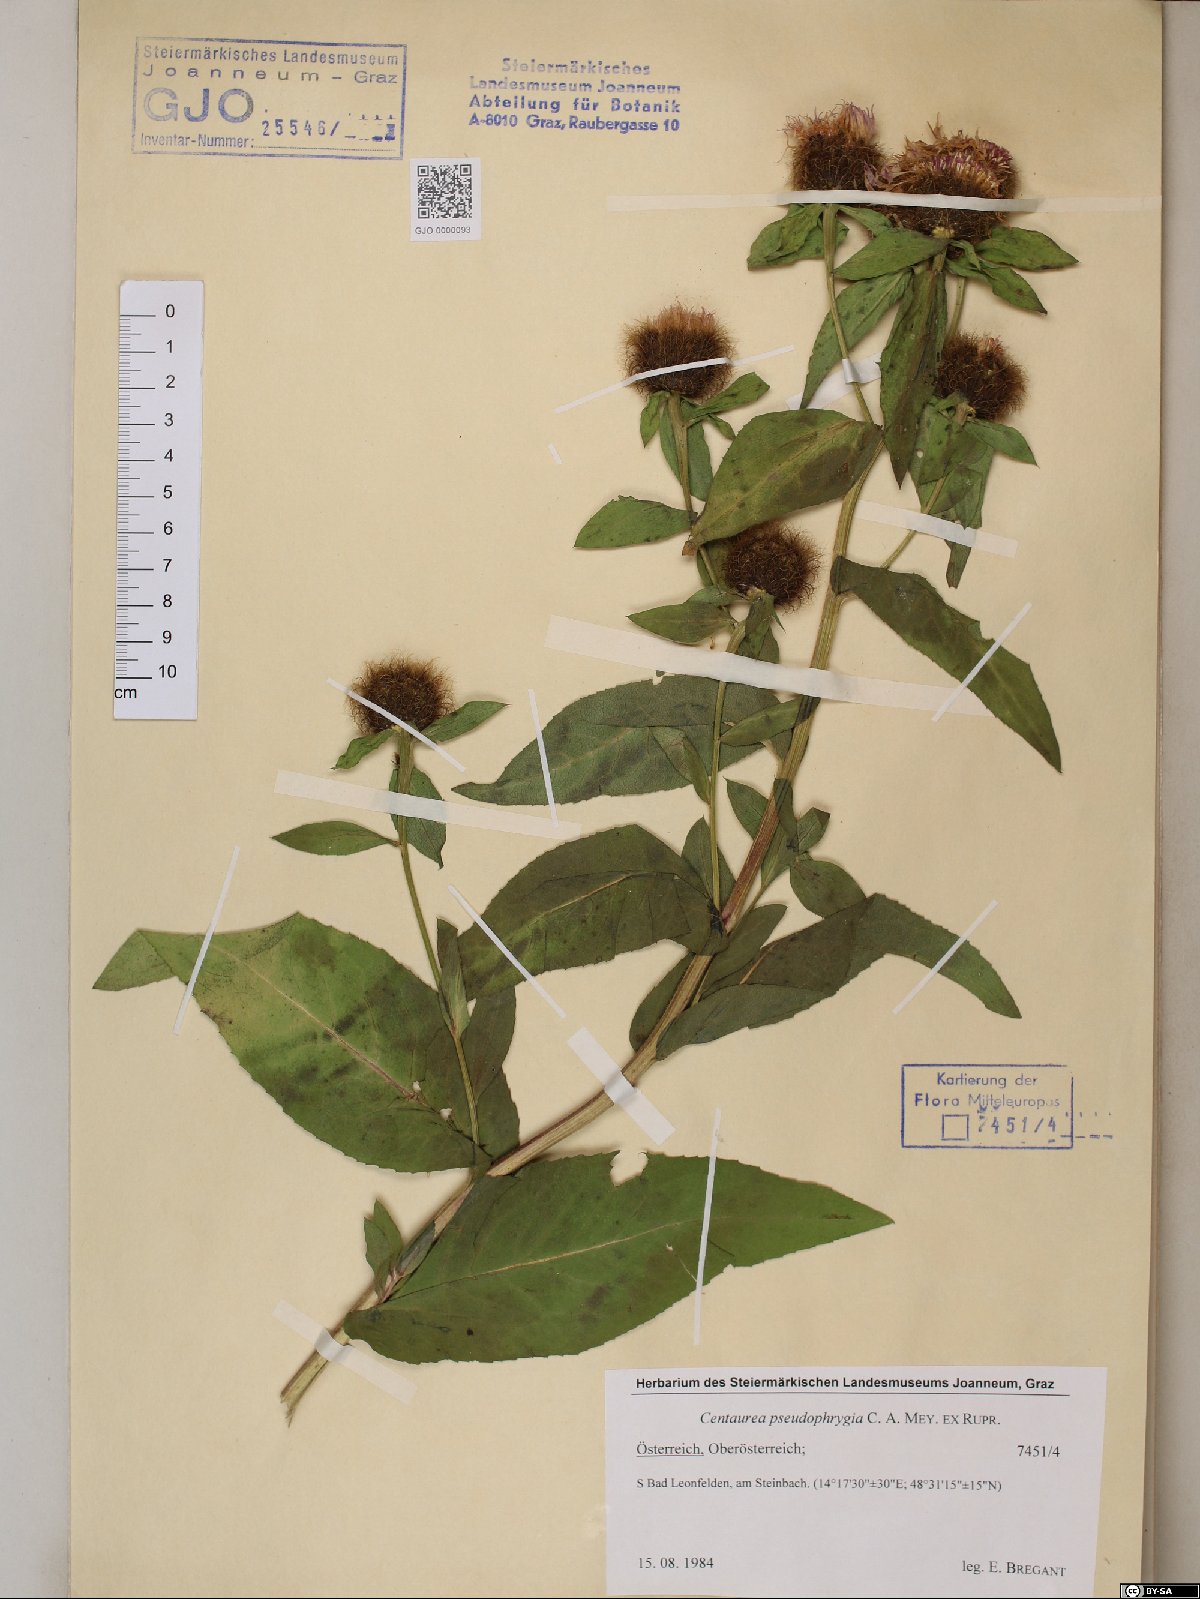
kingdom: Plantae
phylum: Tracheophyta
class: Magnoliopsida
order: Asterales
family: Asteraceae
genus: Centaurea
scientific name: Centaurea pseudophrygia
